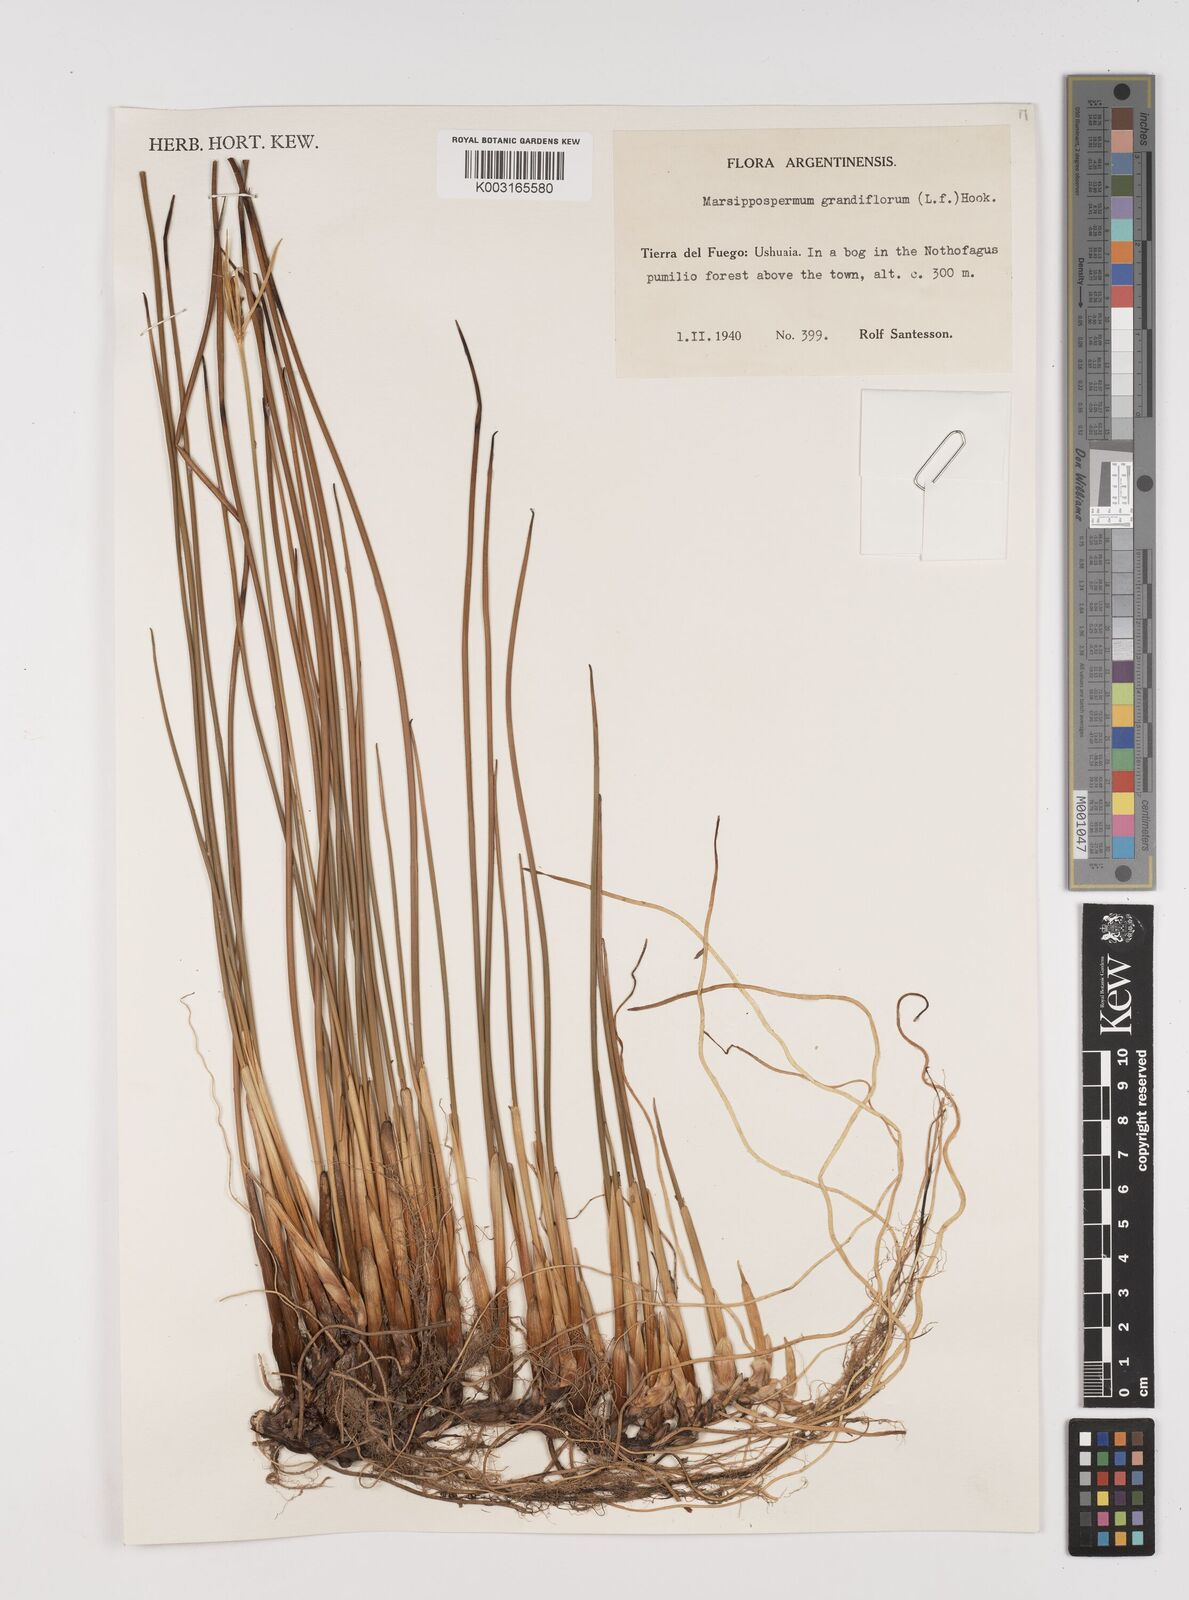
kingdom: Plantae
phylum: Tracheophyta
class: Liliopsida
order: Poales
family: Juncaceae
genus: Marsippospermum
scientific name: Marsippospermum grandiflorum
